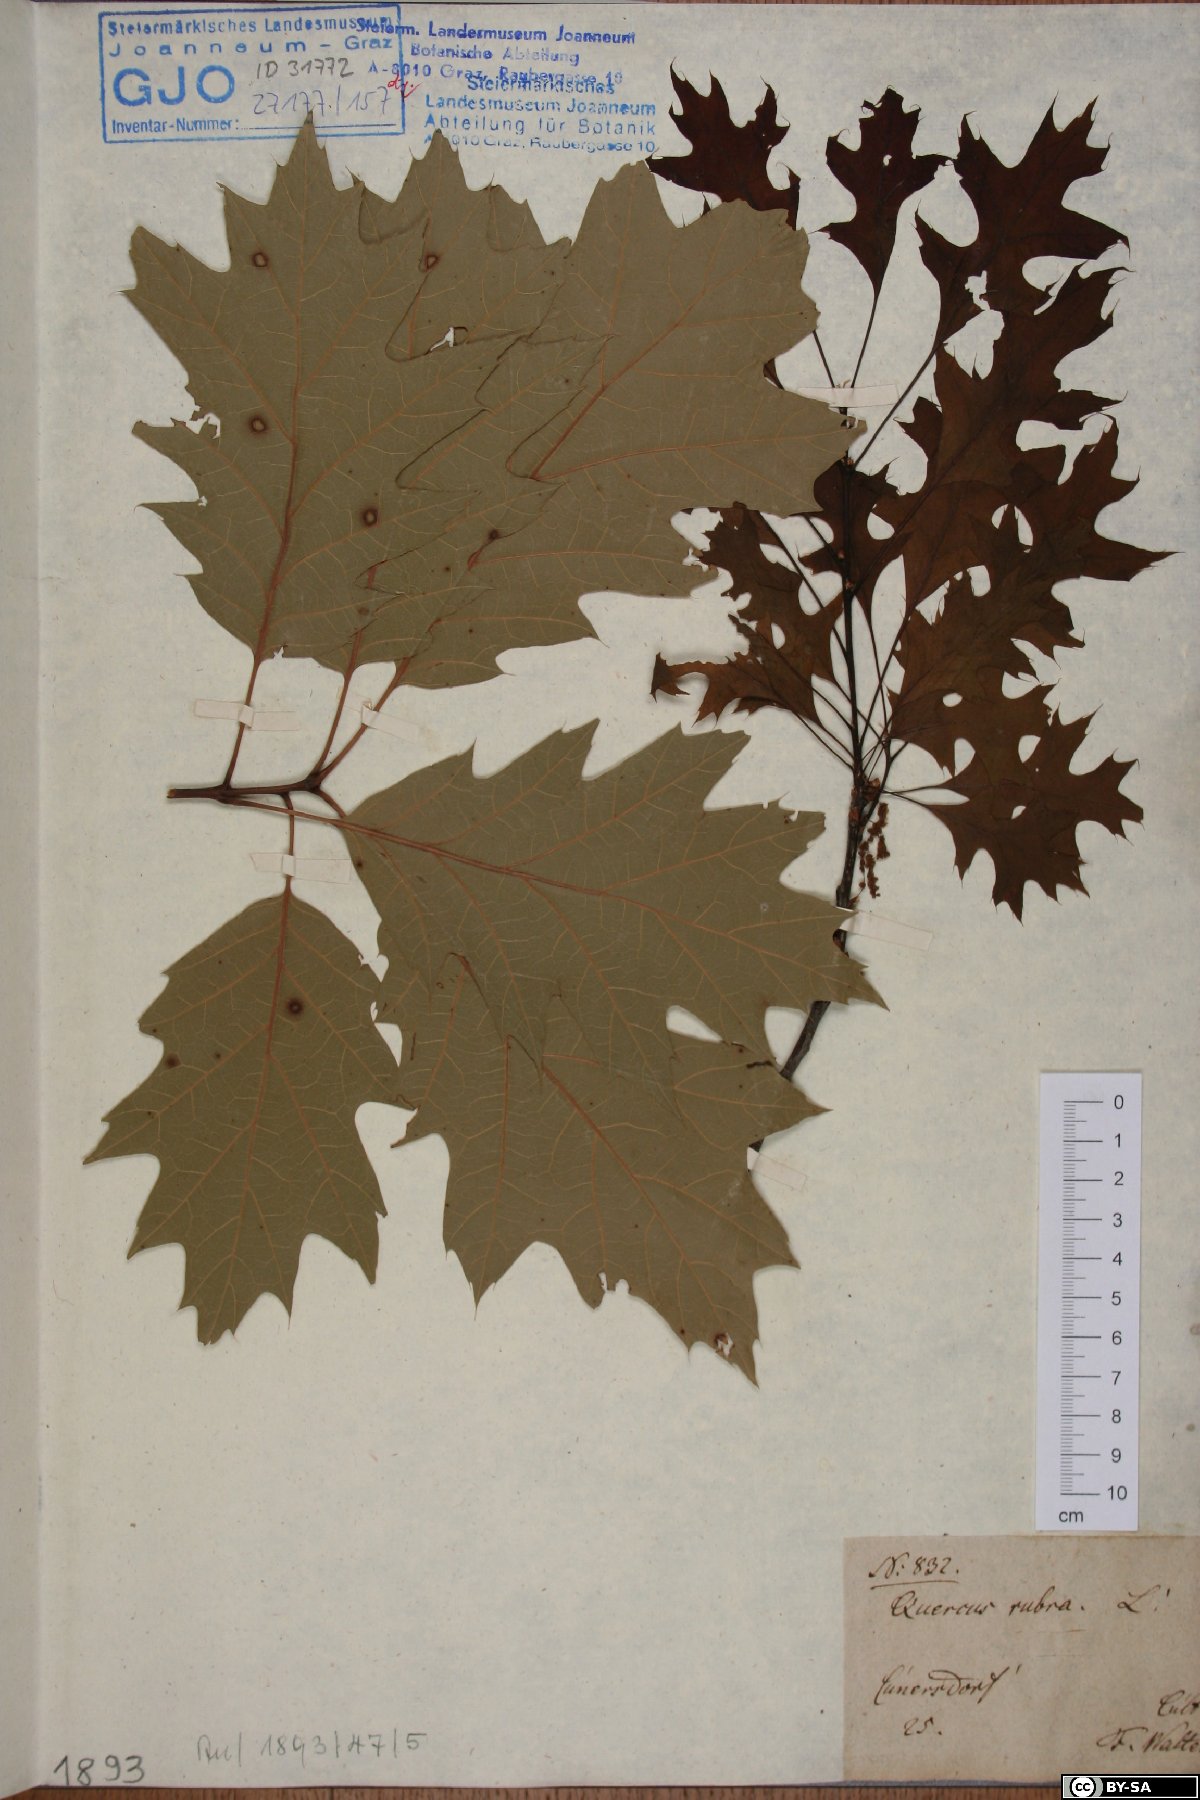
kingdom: Plantae
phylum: Tracheophyta
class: Magnoliopsida
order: Fagales
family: Fagaceae
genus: Quercus
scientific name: Quercus rubra
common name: Red oak
